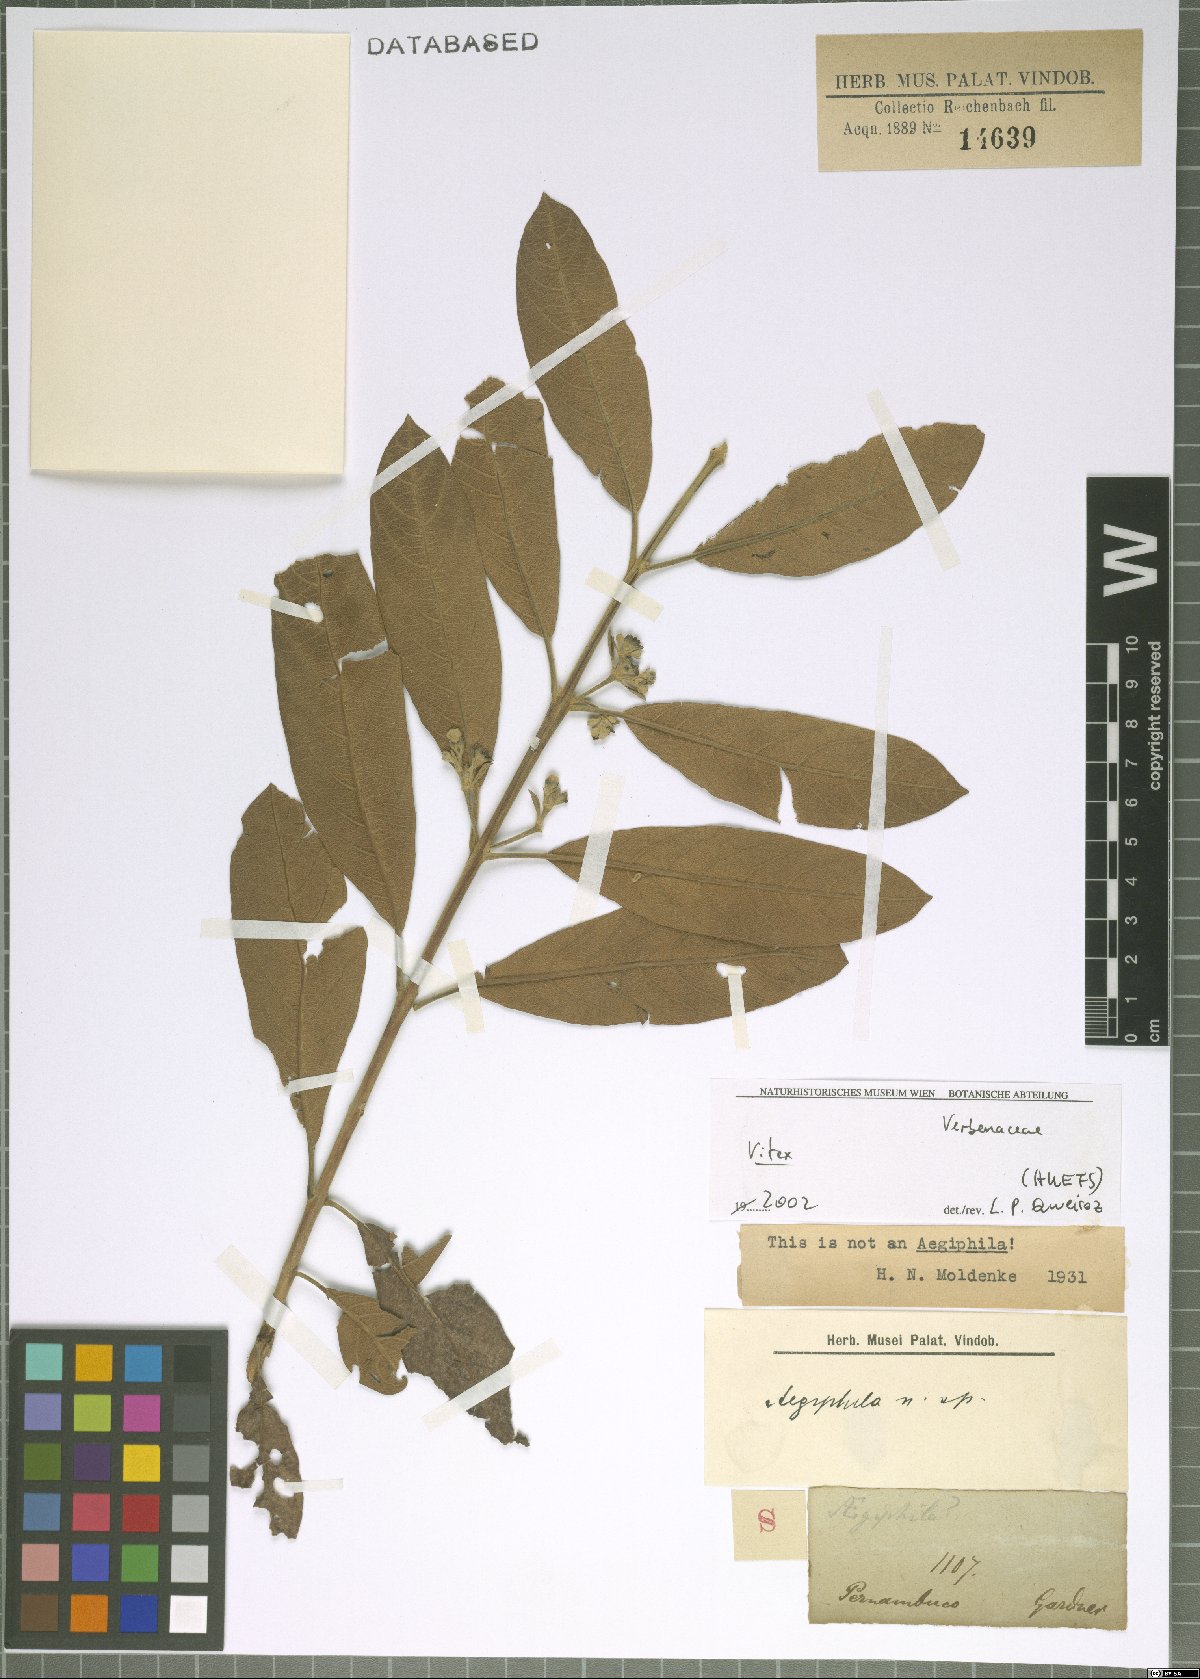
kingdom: Plantae
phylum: Tracheophyta
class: Magnoliopsida
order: Lamiales
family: Lamiaceae
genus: Vitex
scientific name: Vitex
